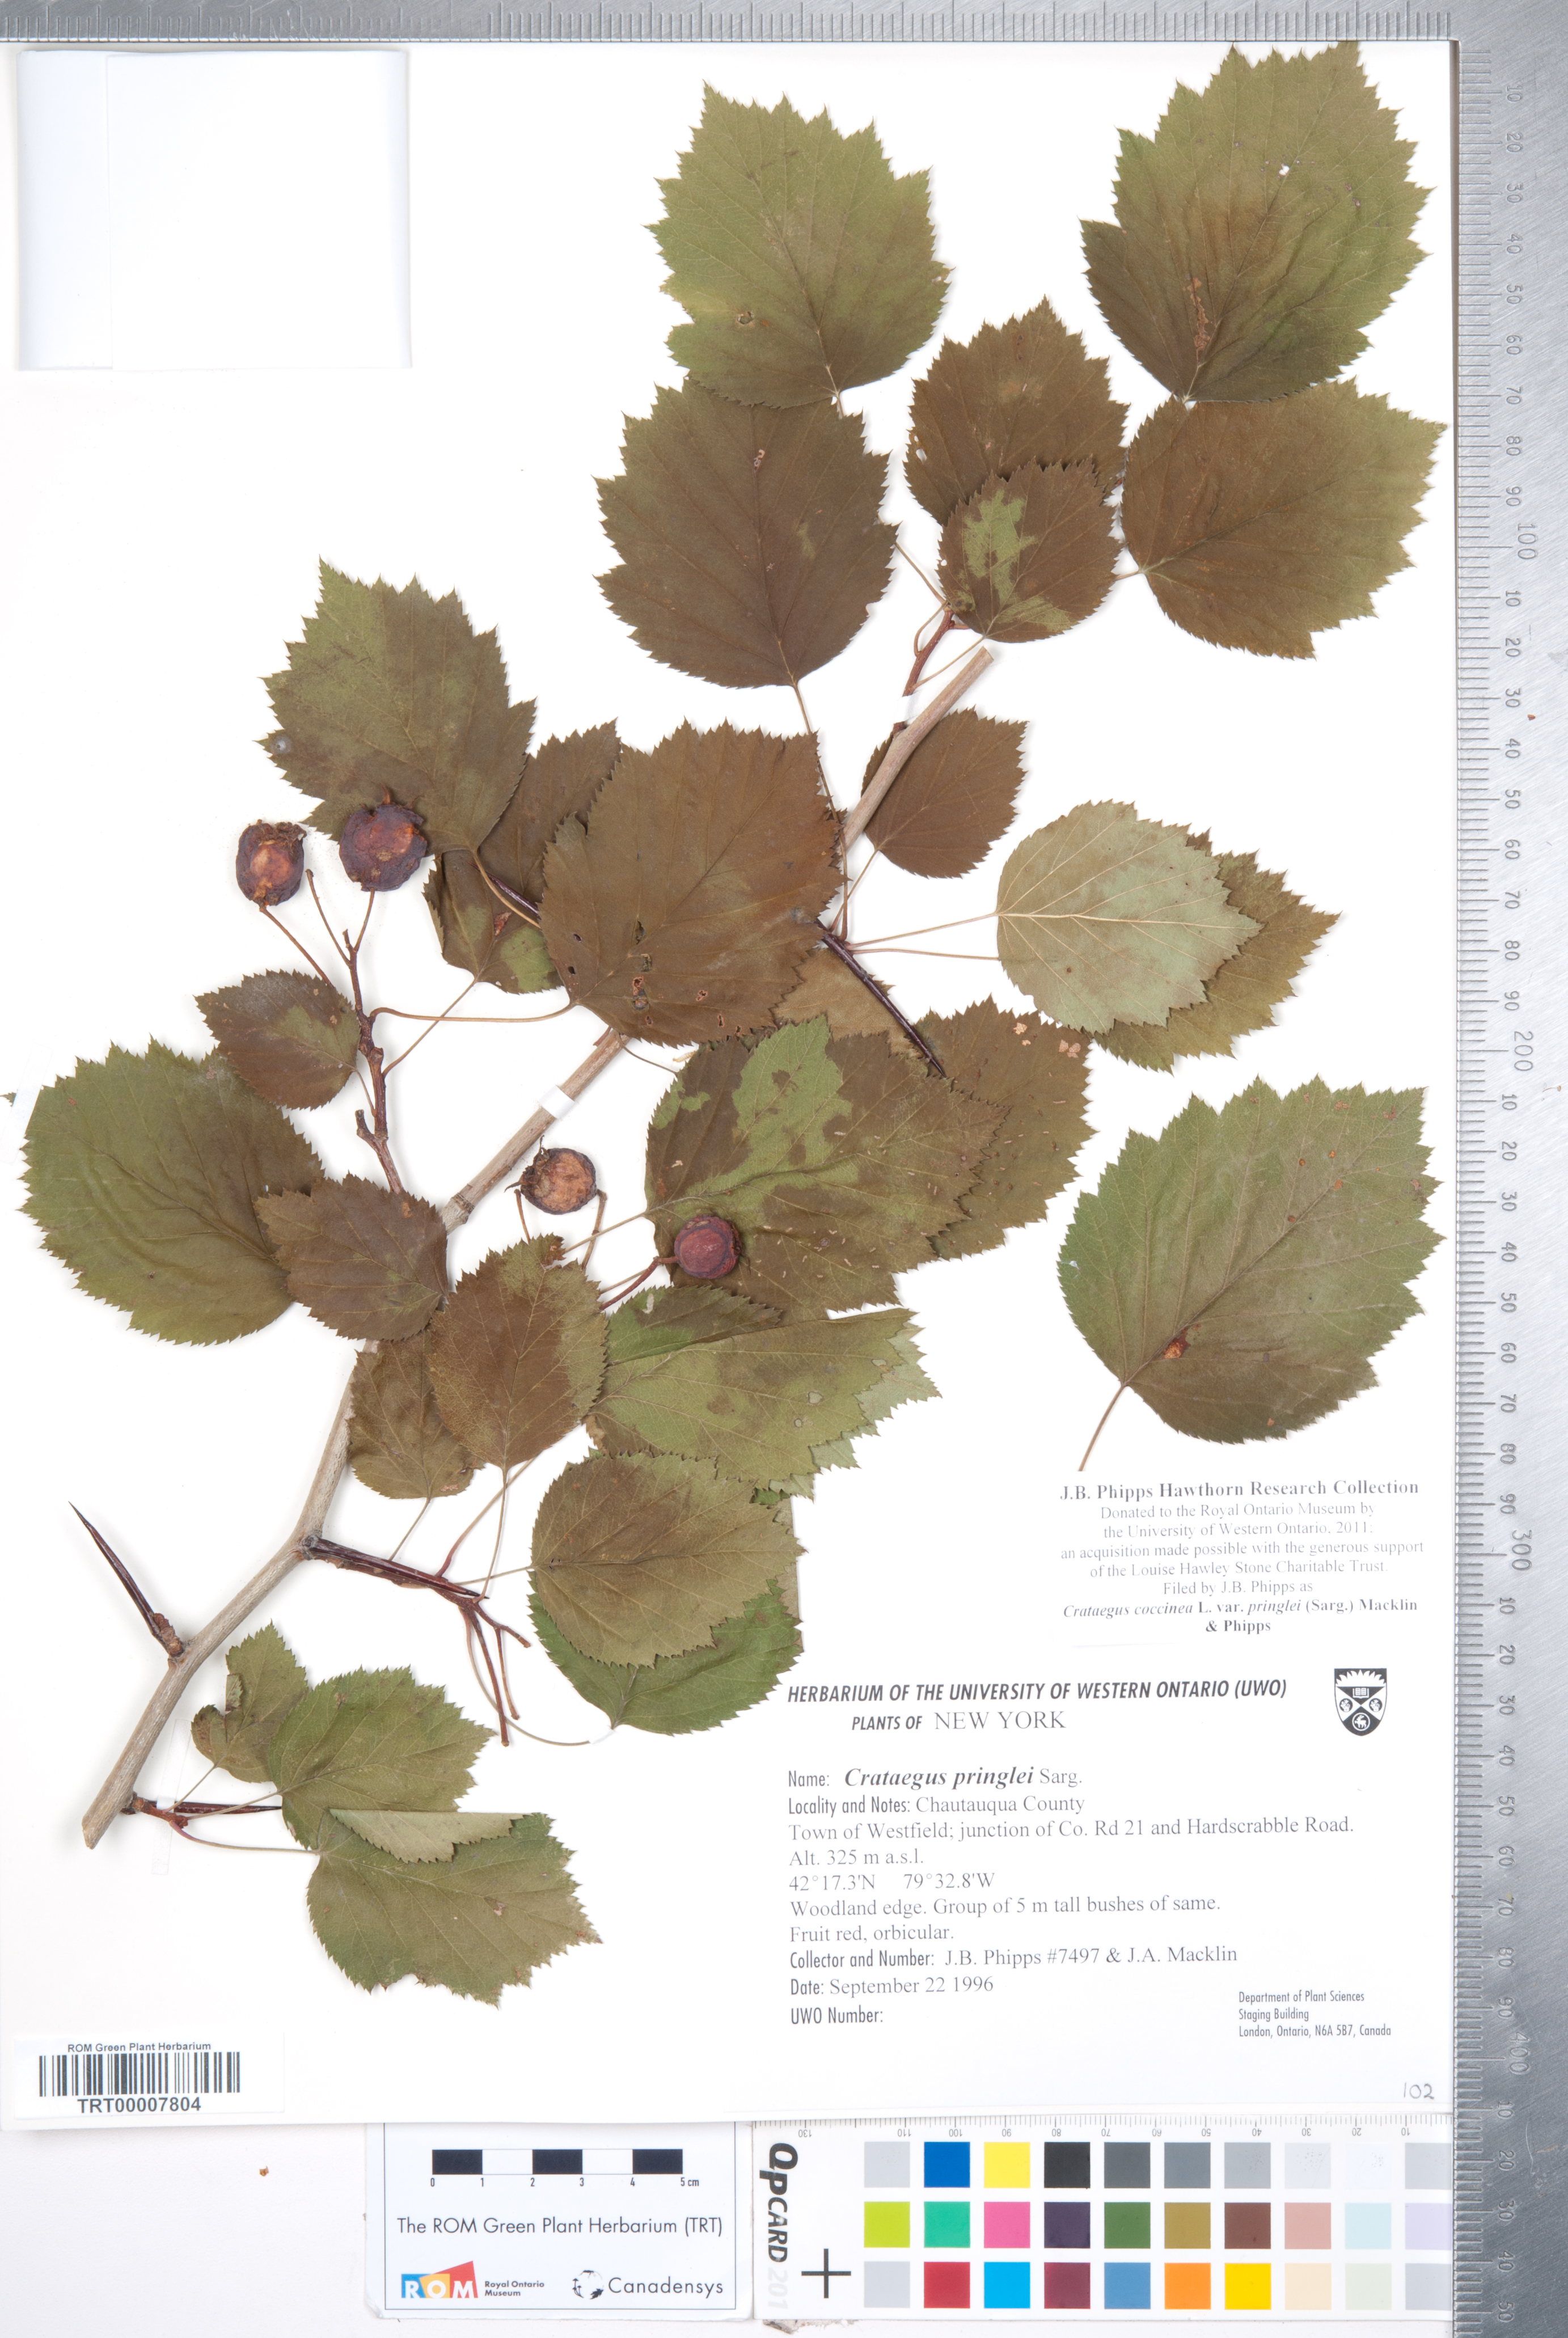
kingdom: Plantae
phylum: Tracheophyta
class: Magnoliopsida
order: Rosales
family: Rosaceae
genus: Crataegus
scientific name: Crataegus coccinea
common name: Scarlet hawthorn
